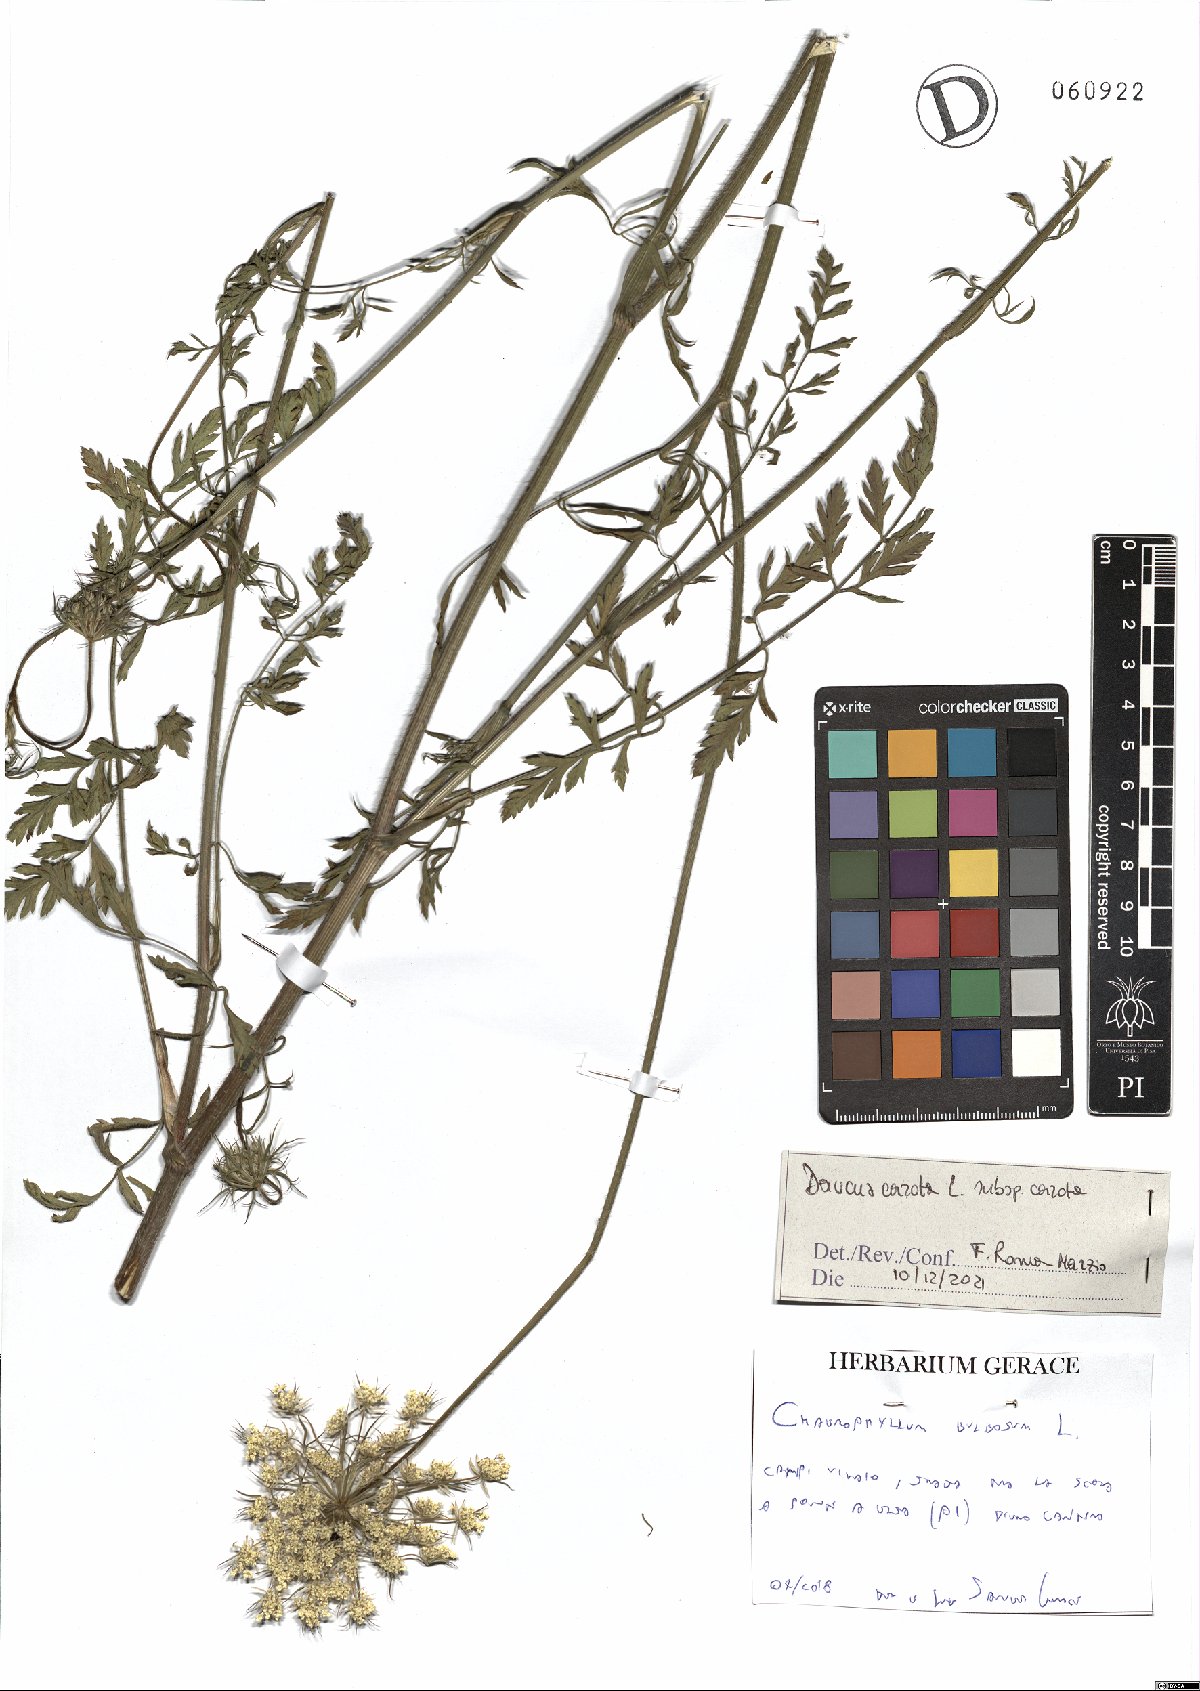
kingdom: Plantae
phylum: Tracheophyta
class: Magnoliopsida
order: Apiales
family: Apiaceae
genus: Daucus
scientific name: Daucus carota
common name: Wild carrot
